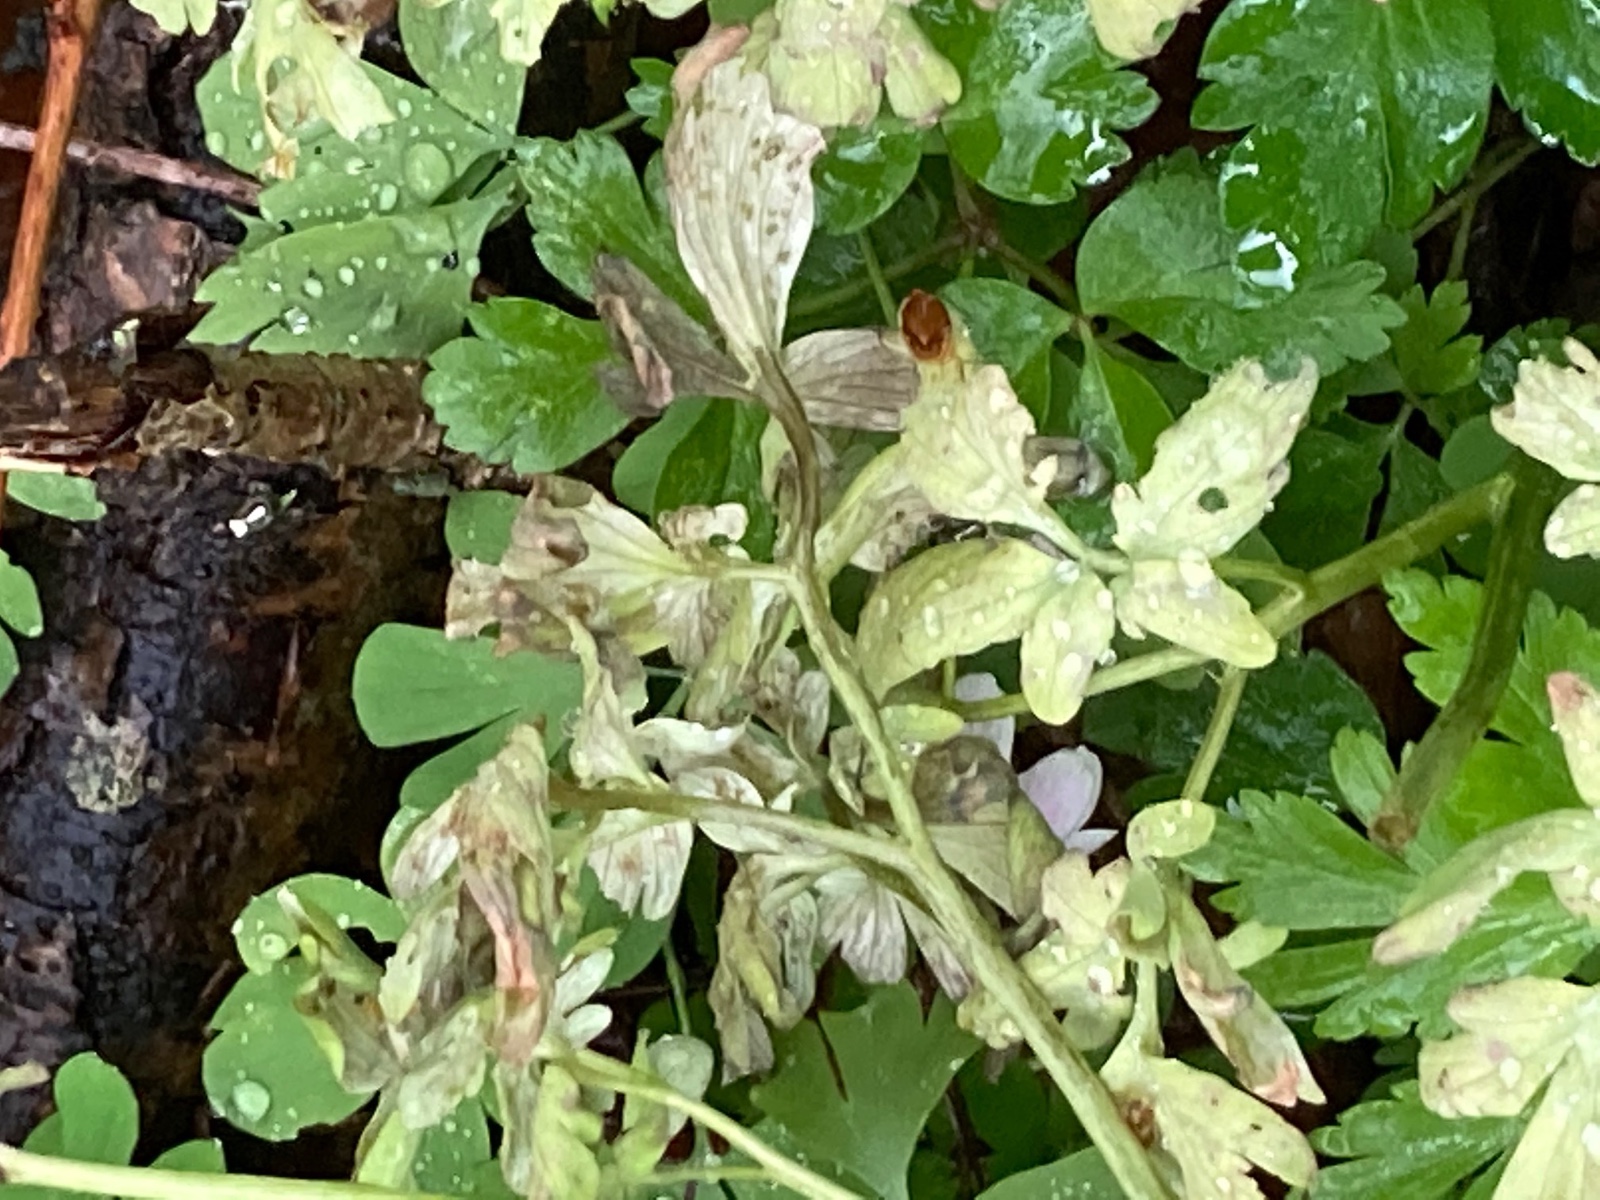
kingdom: Chromista
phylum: Oomycota
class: Peronosporea
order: Peronosporales
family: Peronosporaceae
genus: Peronospora
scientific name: Peronospora bulbocapni
